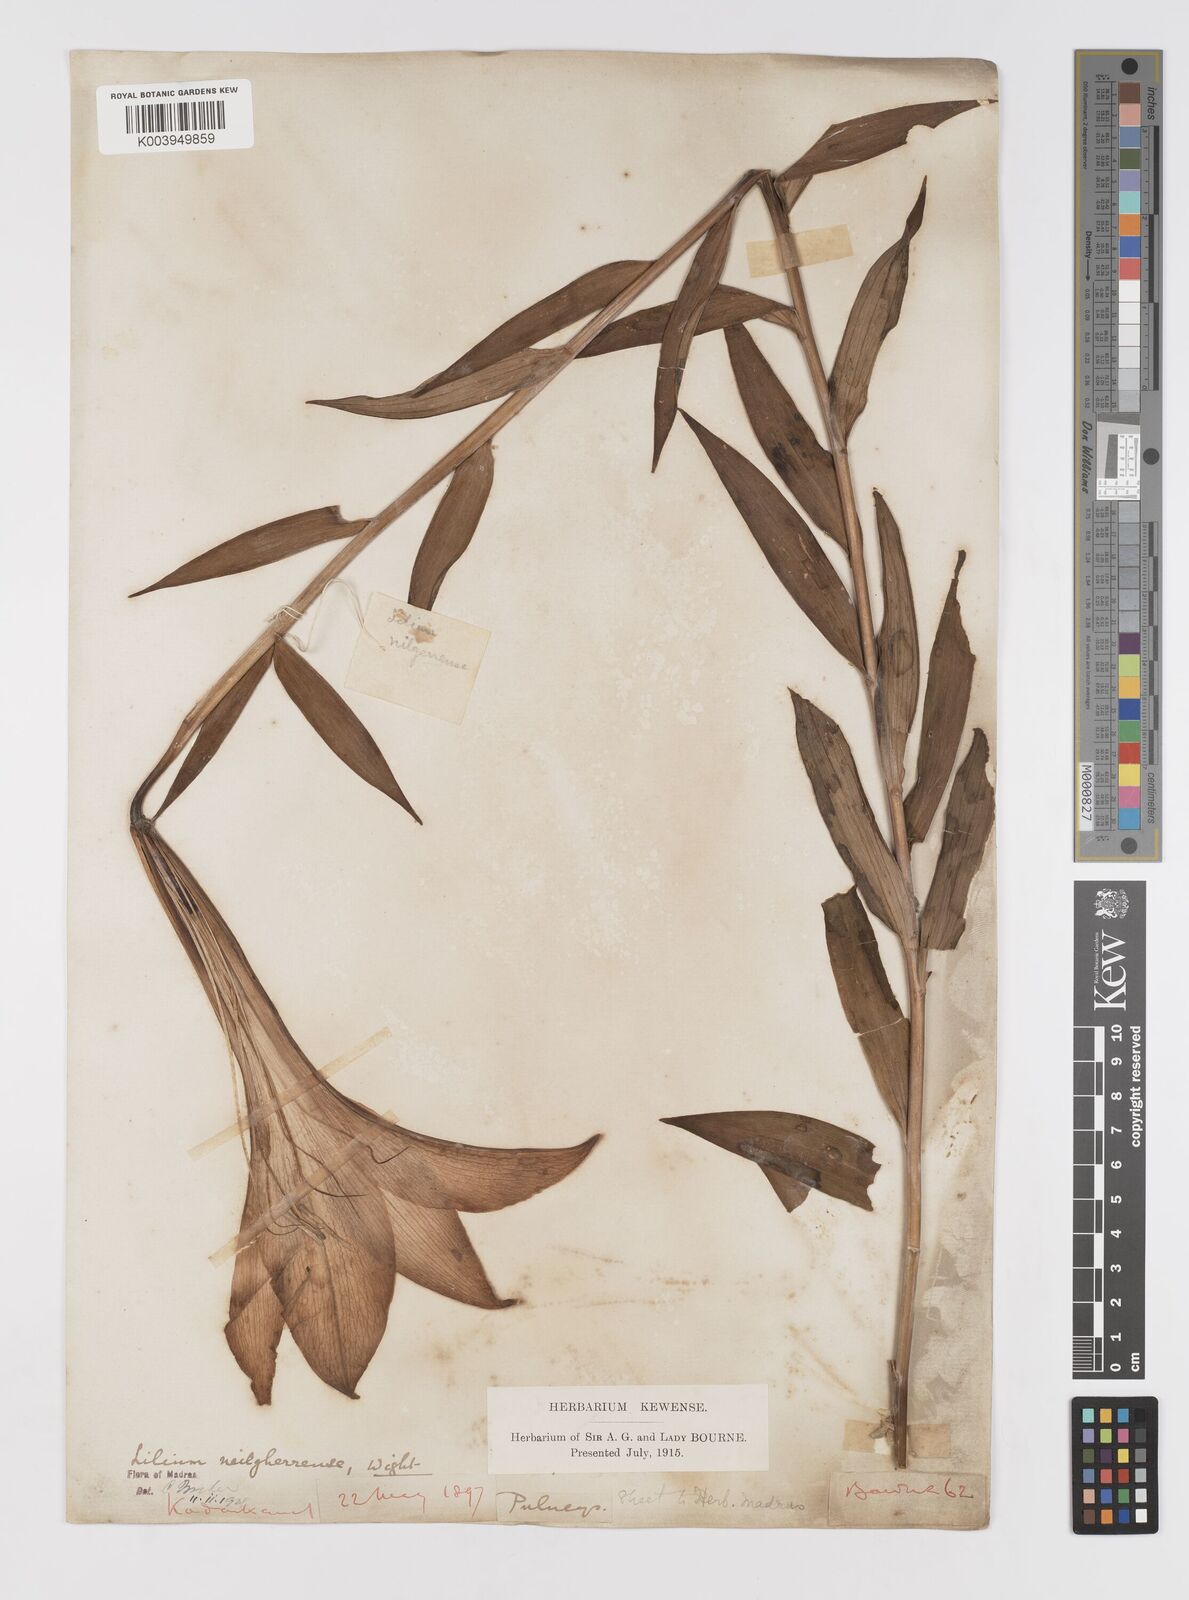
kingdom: Plantae
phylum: Tracheophyta
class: Liliopsida
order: Liliales
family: Liliaceae
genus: Lilium
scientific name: Lilium wallichianum
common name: Wallich's lily
